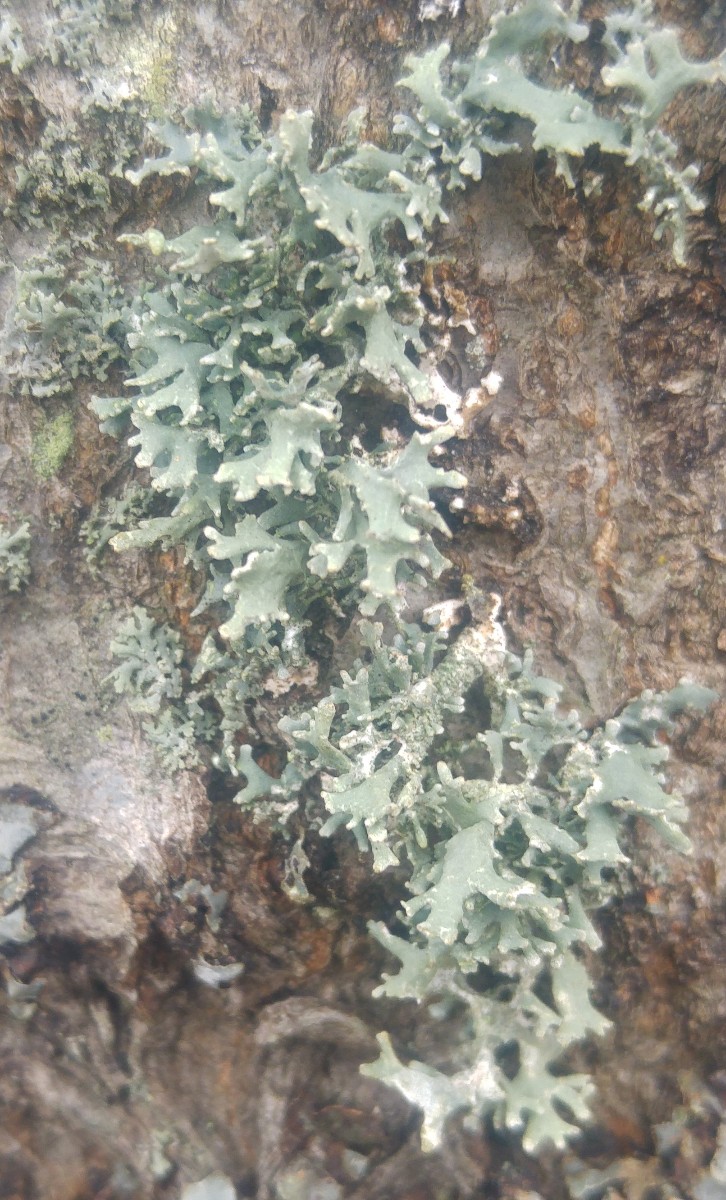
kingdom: Fungi
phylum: Ascomycota
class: Lecanoromycetes
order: Lecanorales
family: Parmeliaceae
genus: Evernia
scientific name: Evernia prunastri
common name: almindelig slåenlav
